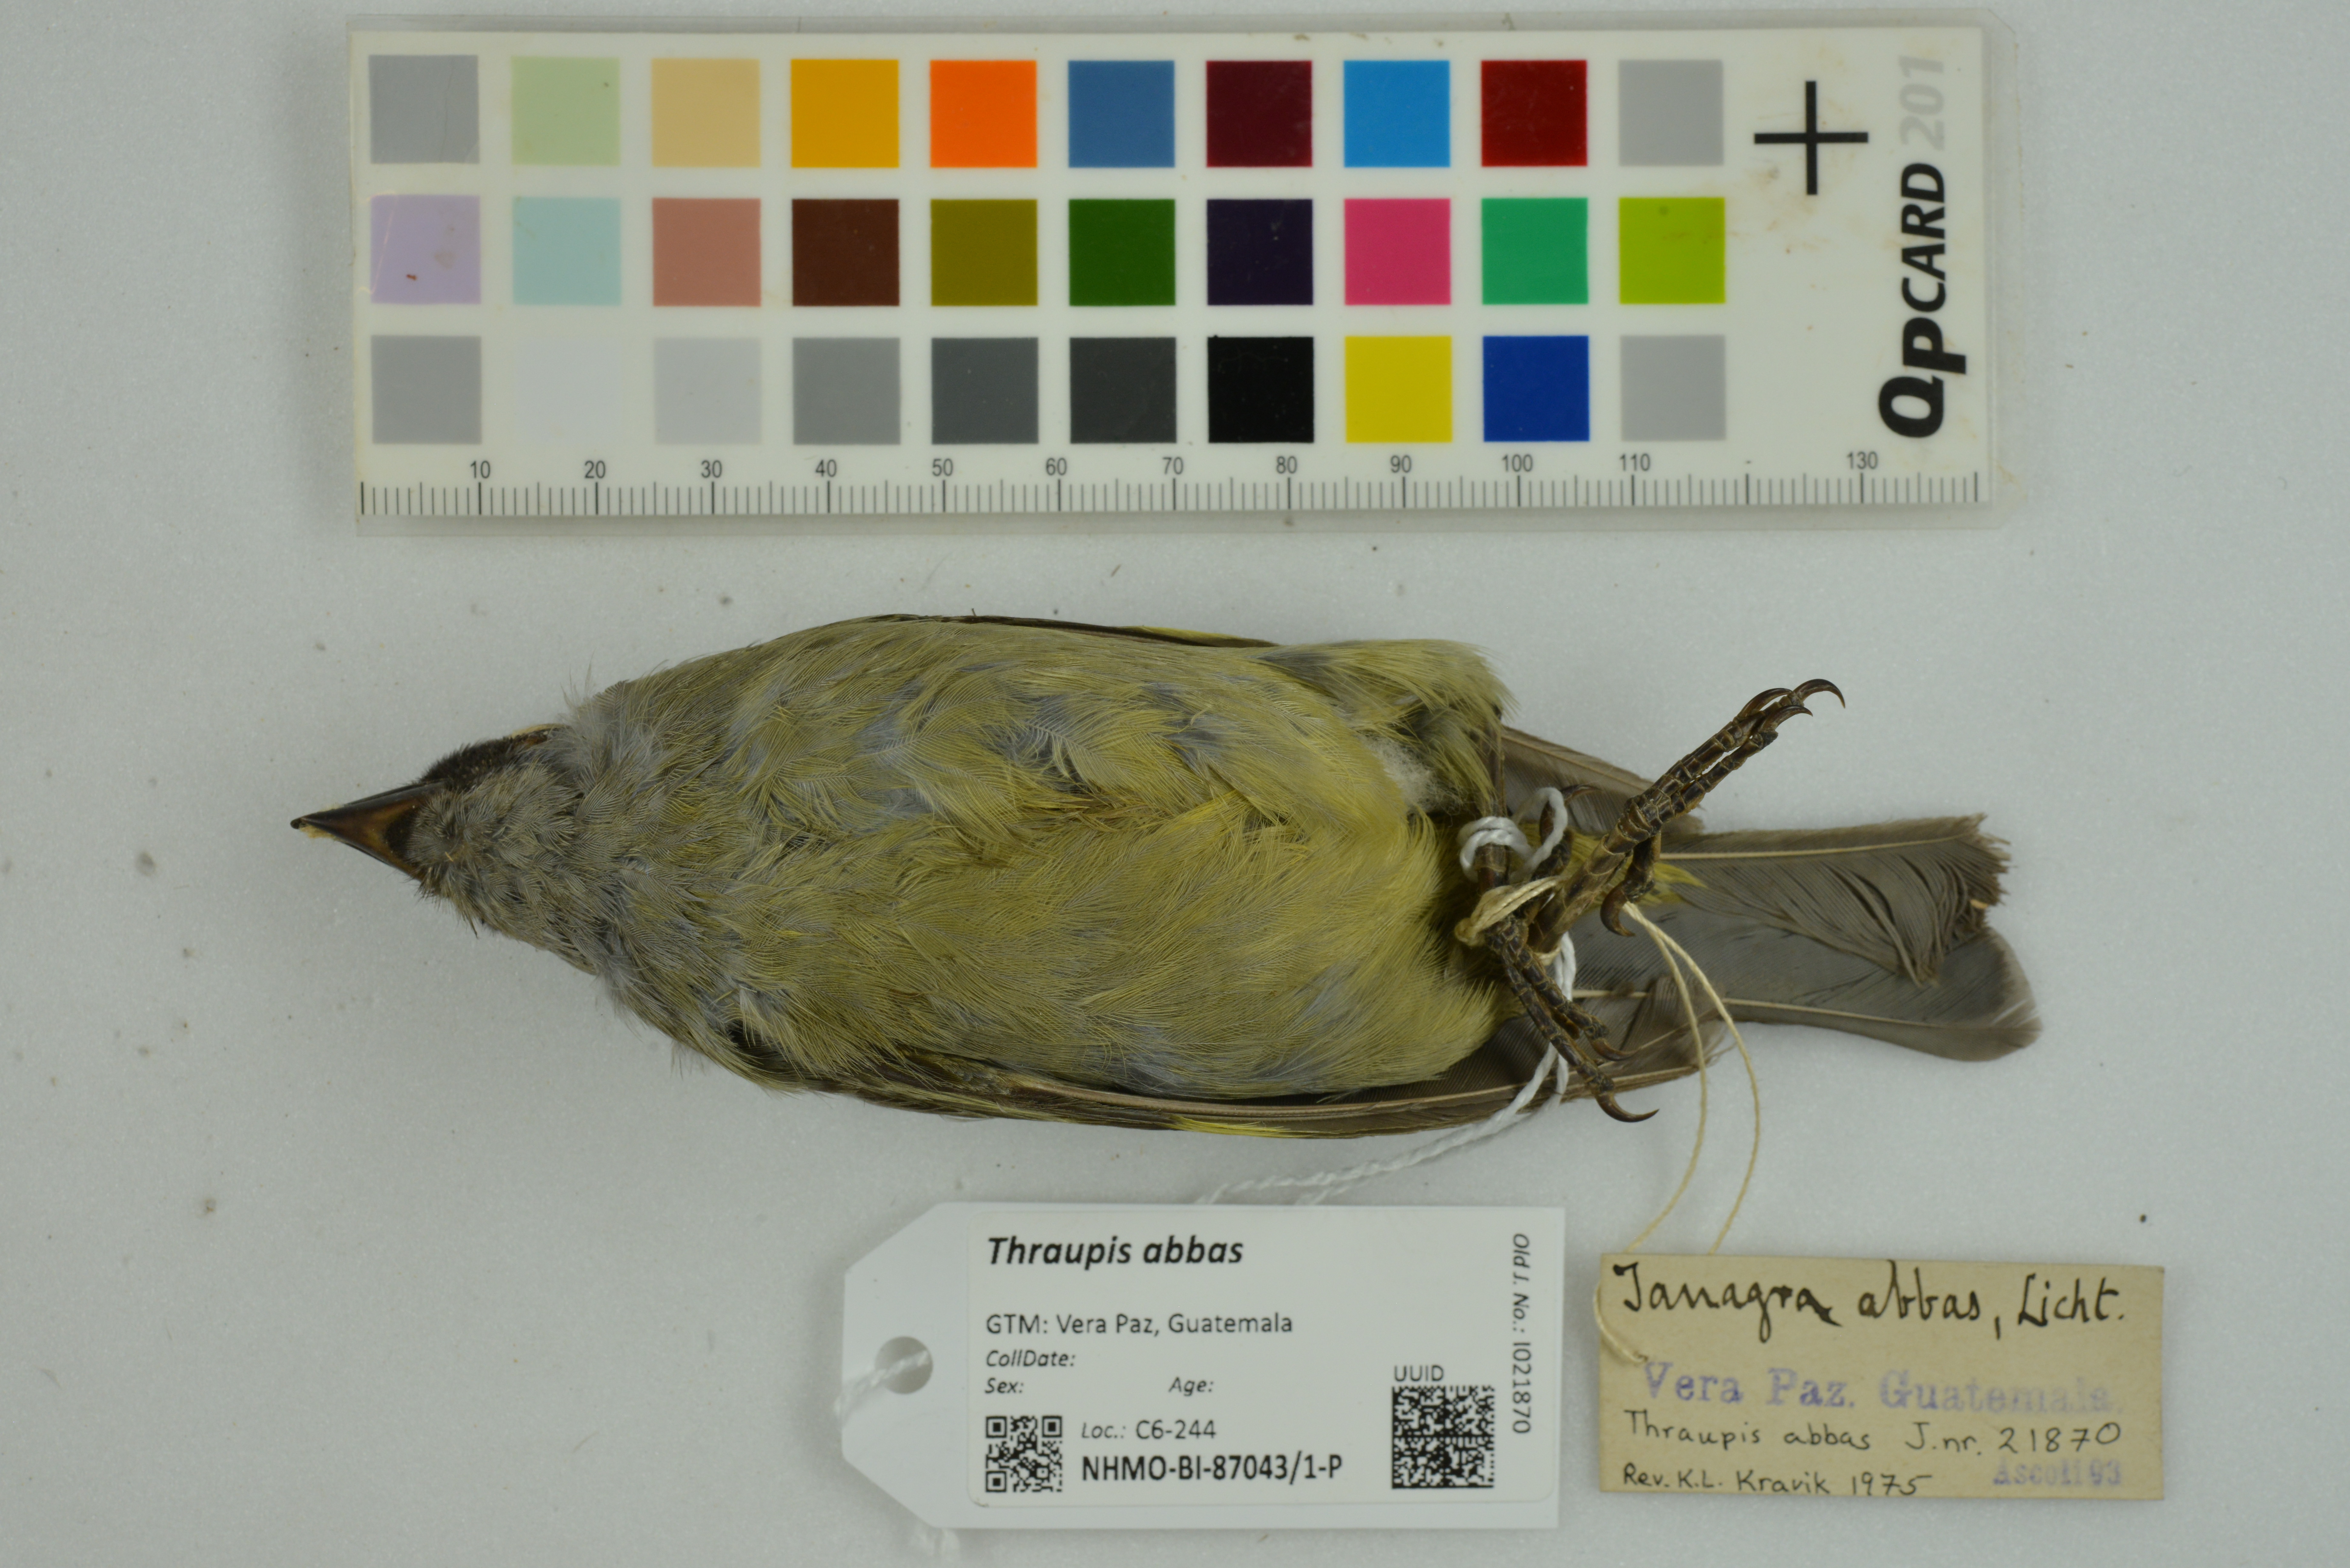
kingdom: Animalia
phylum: Chordata
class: Aves
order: Passeriformes
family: Thraupidae
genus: Thraupis
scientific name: Thraupis abbas
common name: Yellow-winged tanager
